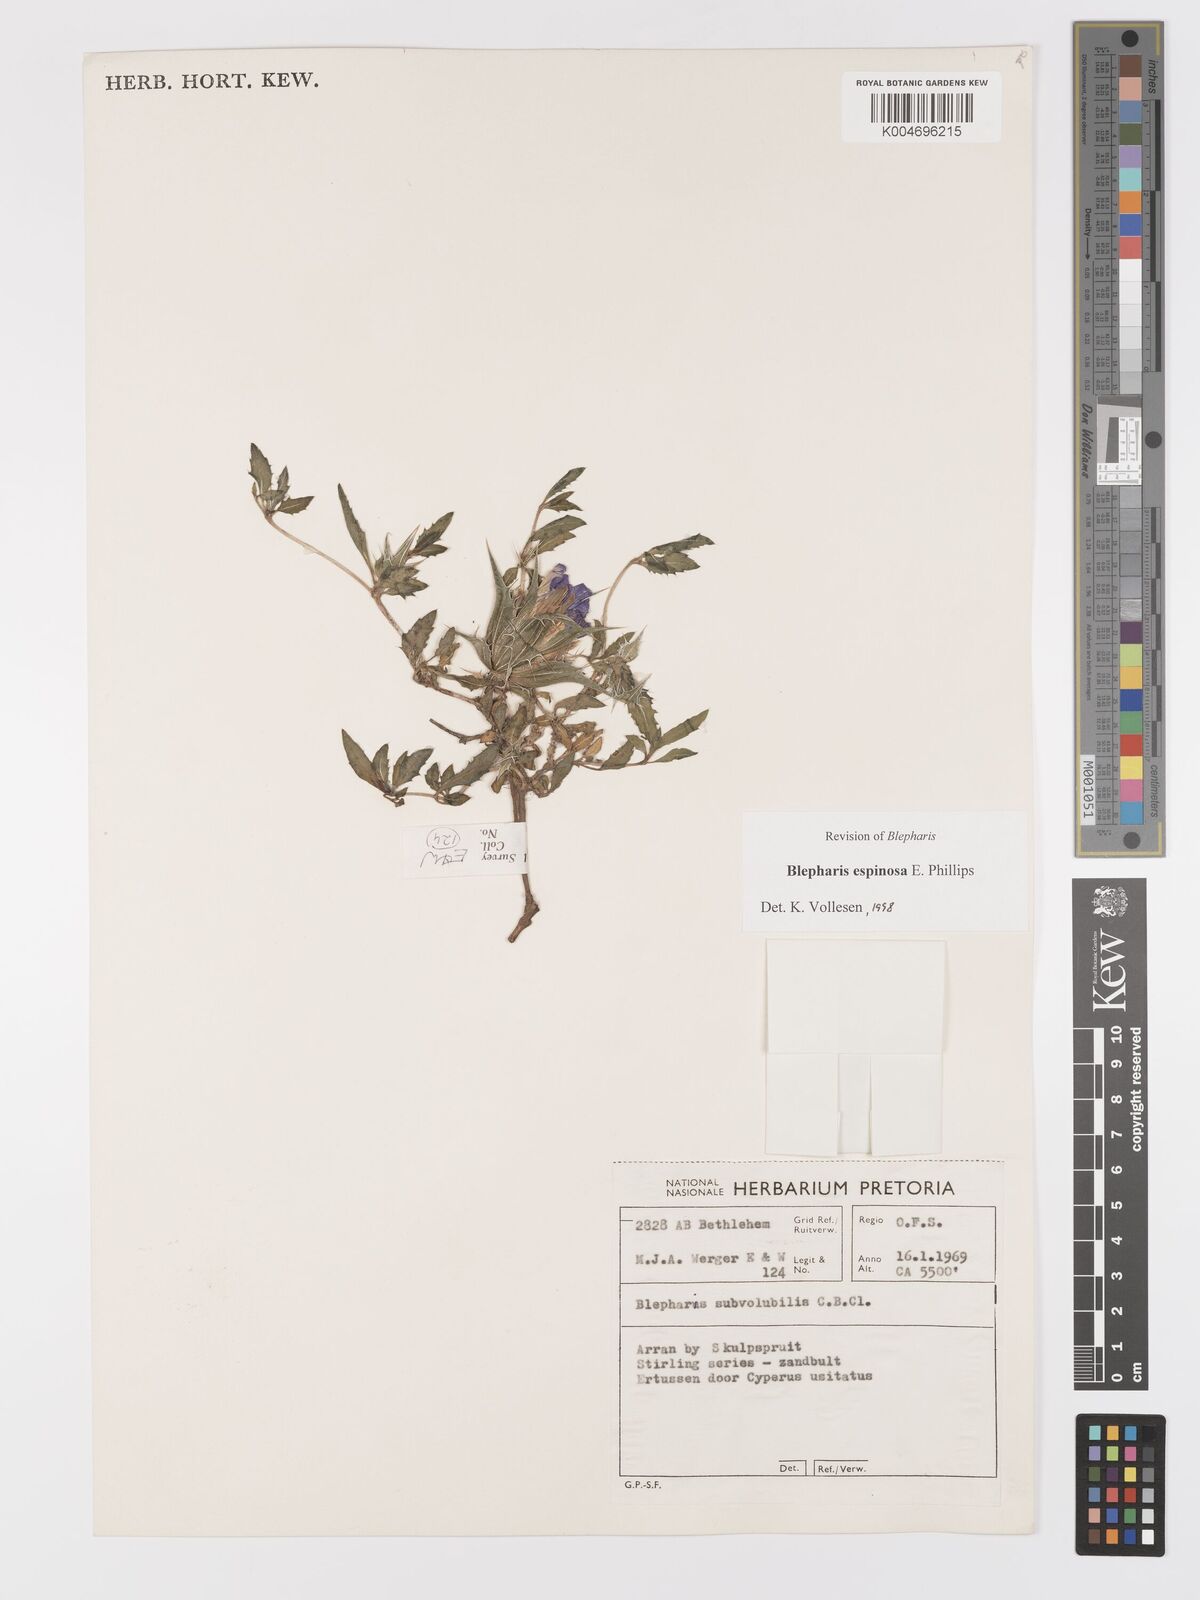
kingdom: Plantae
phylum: Tracheophyta
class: Magnoliopsida
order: Lamiales
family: Acanthaceae
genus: Blepharis
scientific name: Blepharis espinosa
